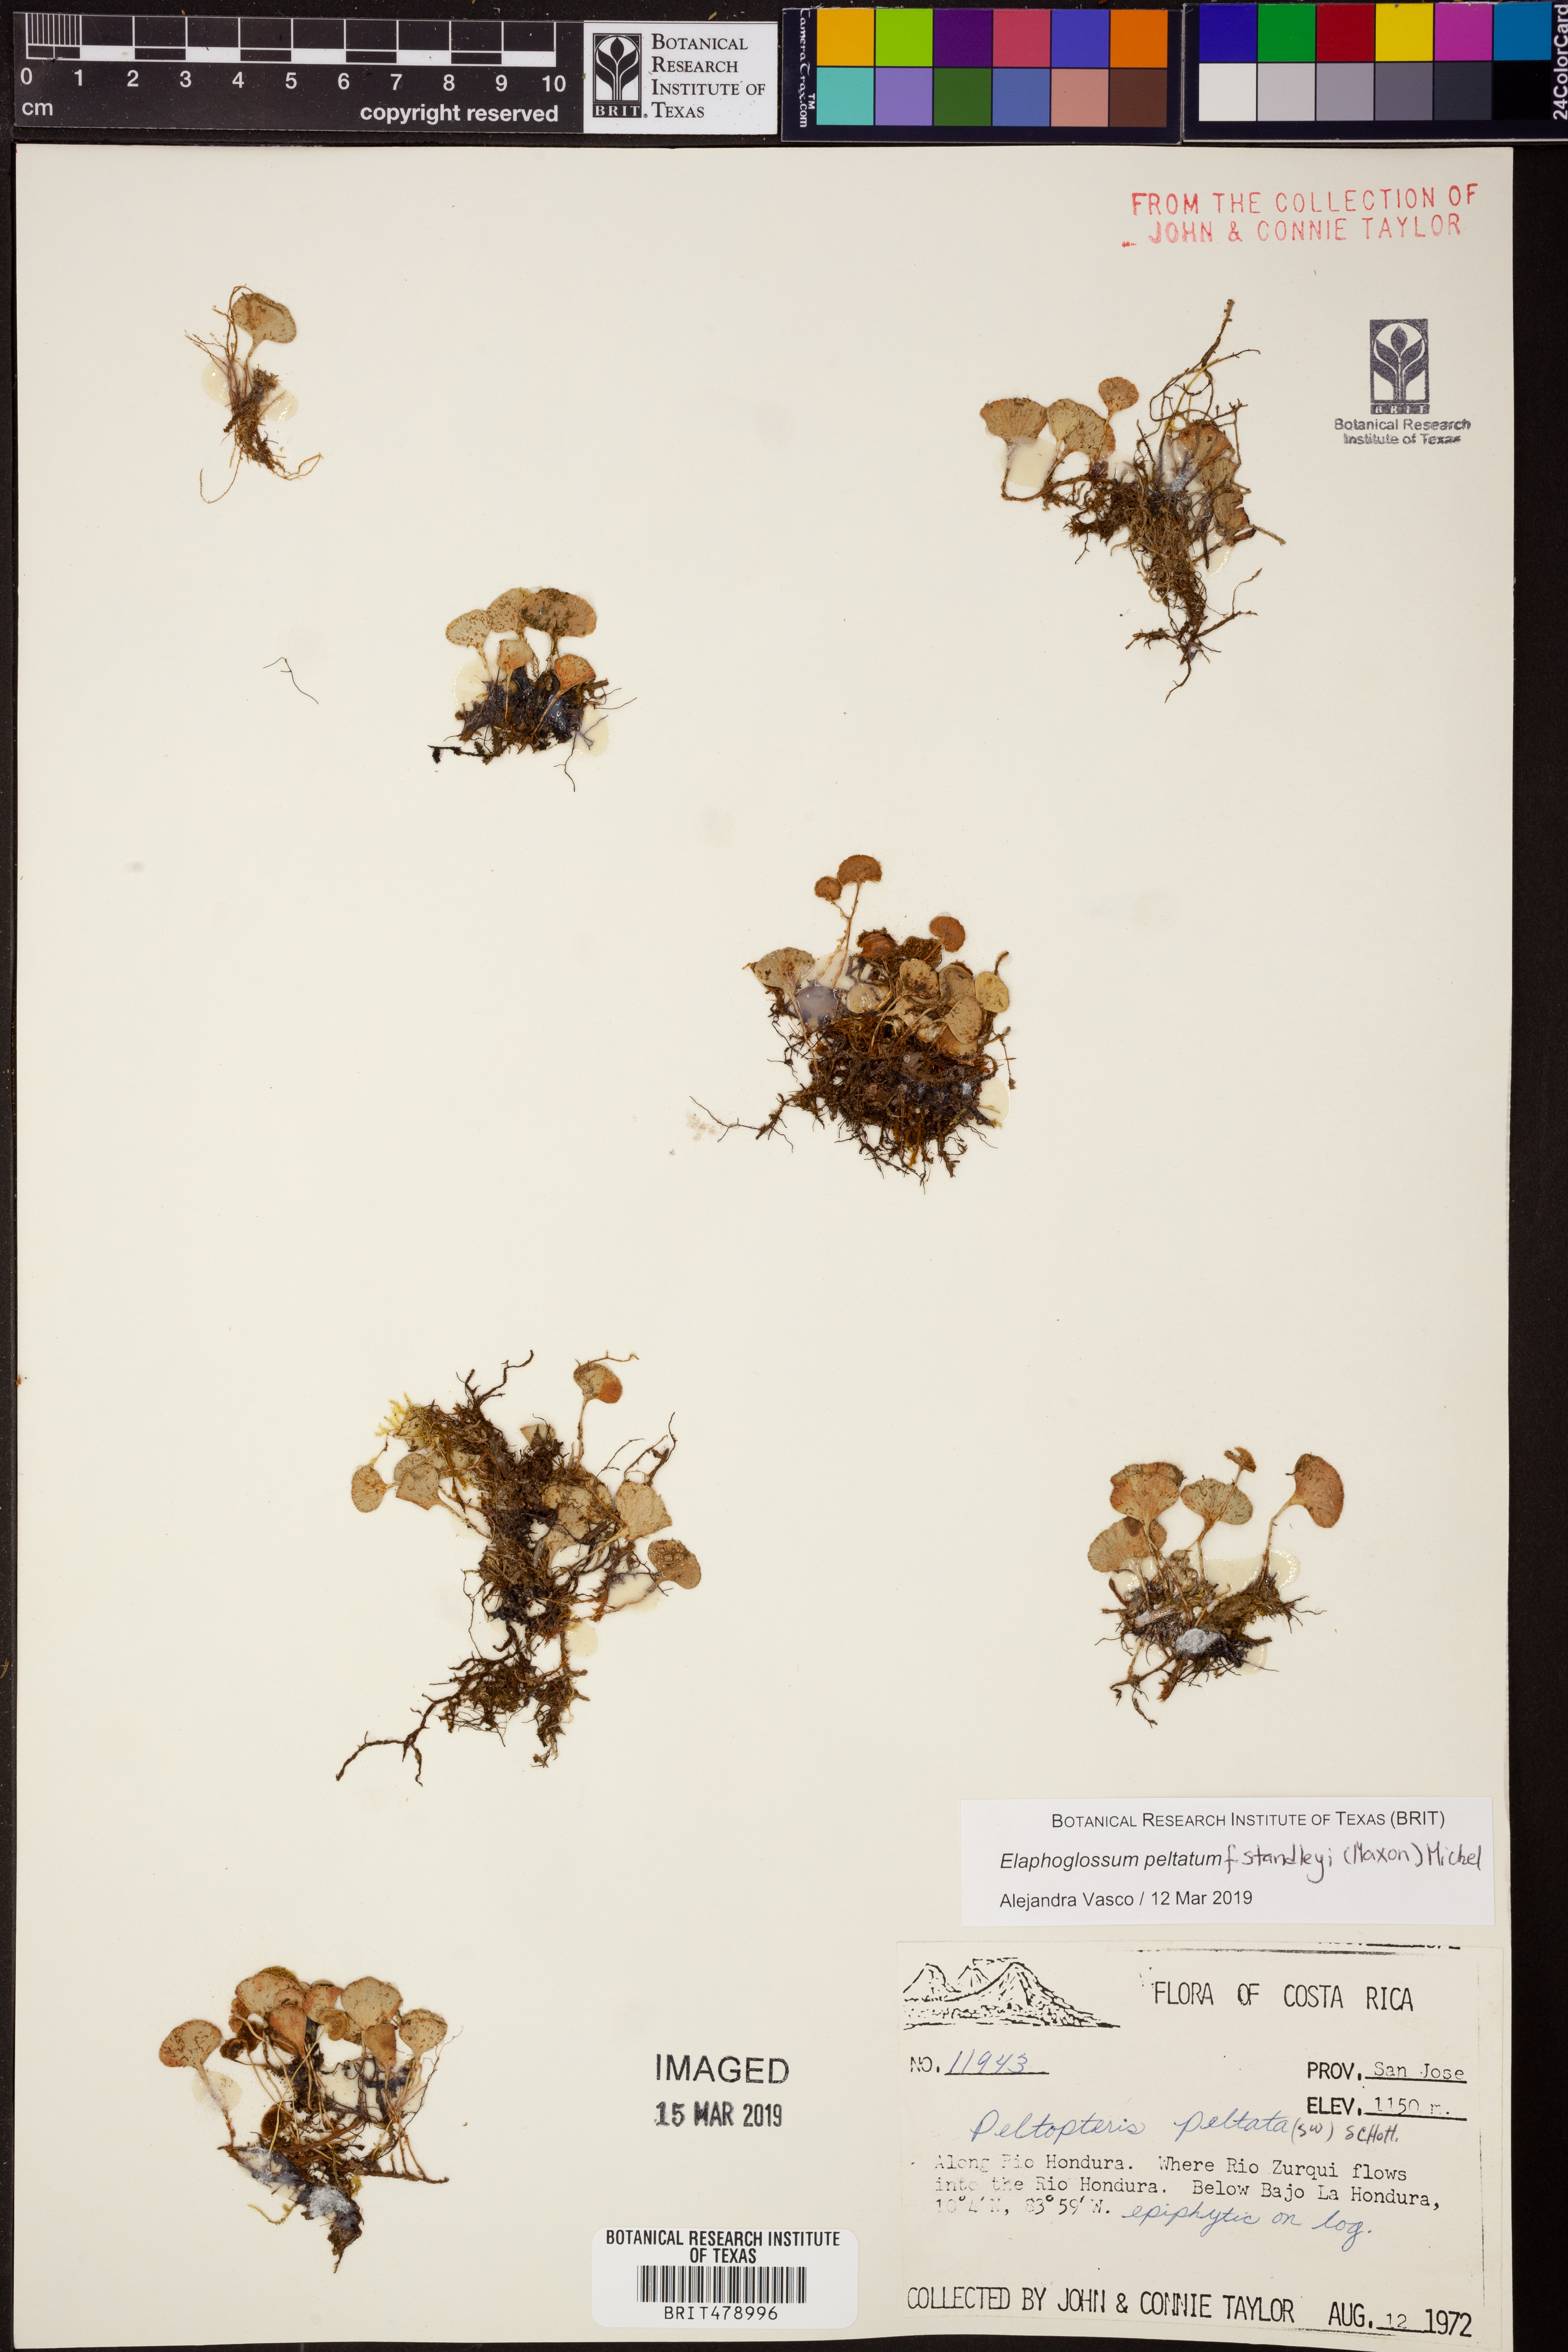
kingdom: Plantae
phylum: Tracheophyta
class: Polypodiopsida
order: Polypodiales
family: Dryopteridaceae
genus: Elaphoglossum
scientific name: Elaphoglossum peltatum
